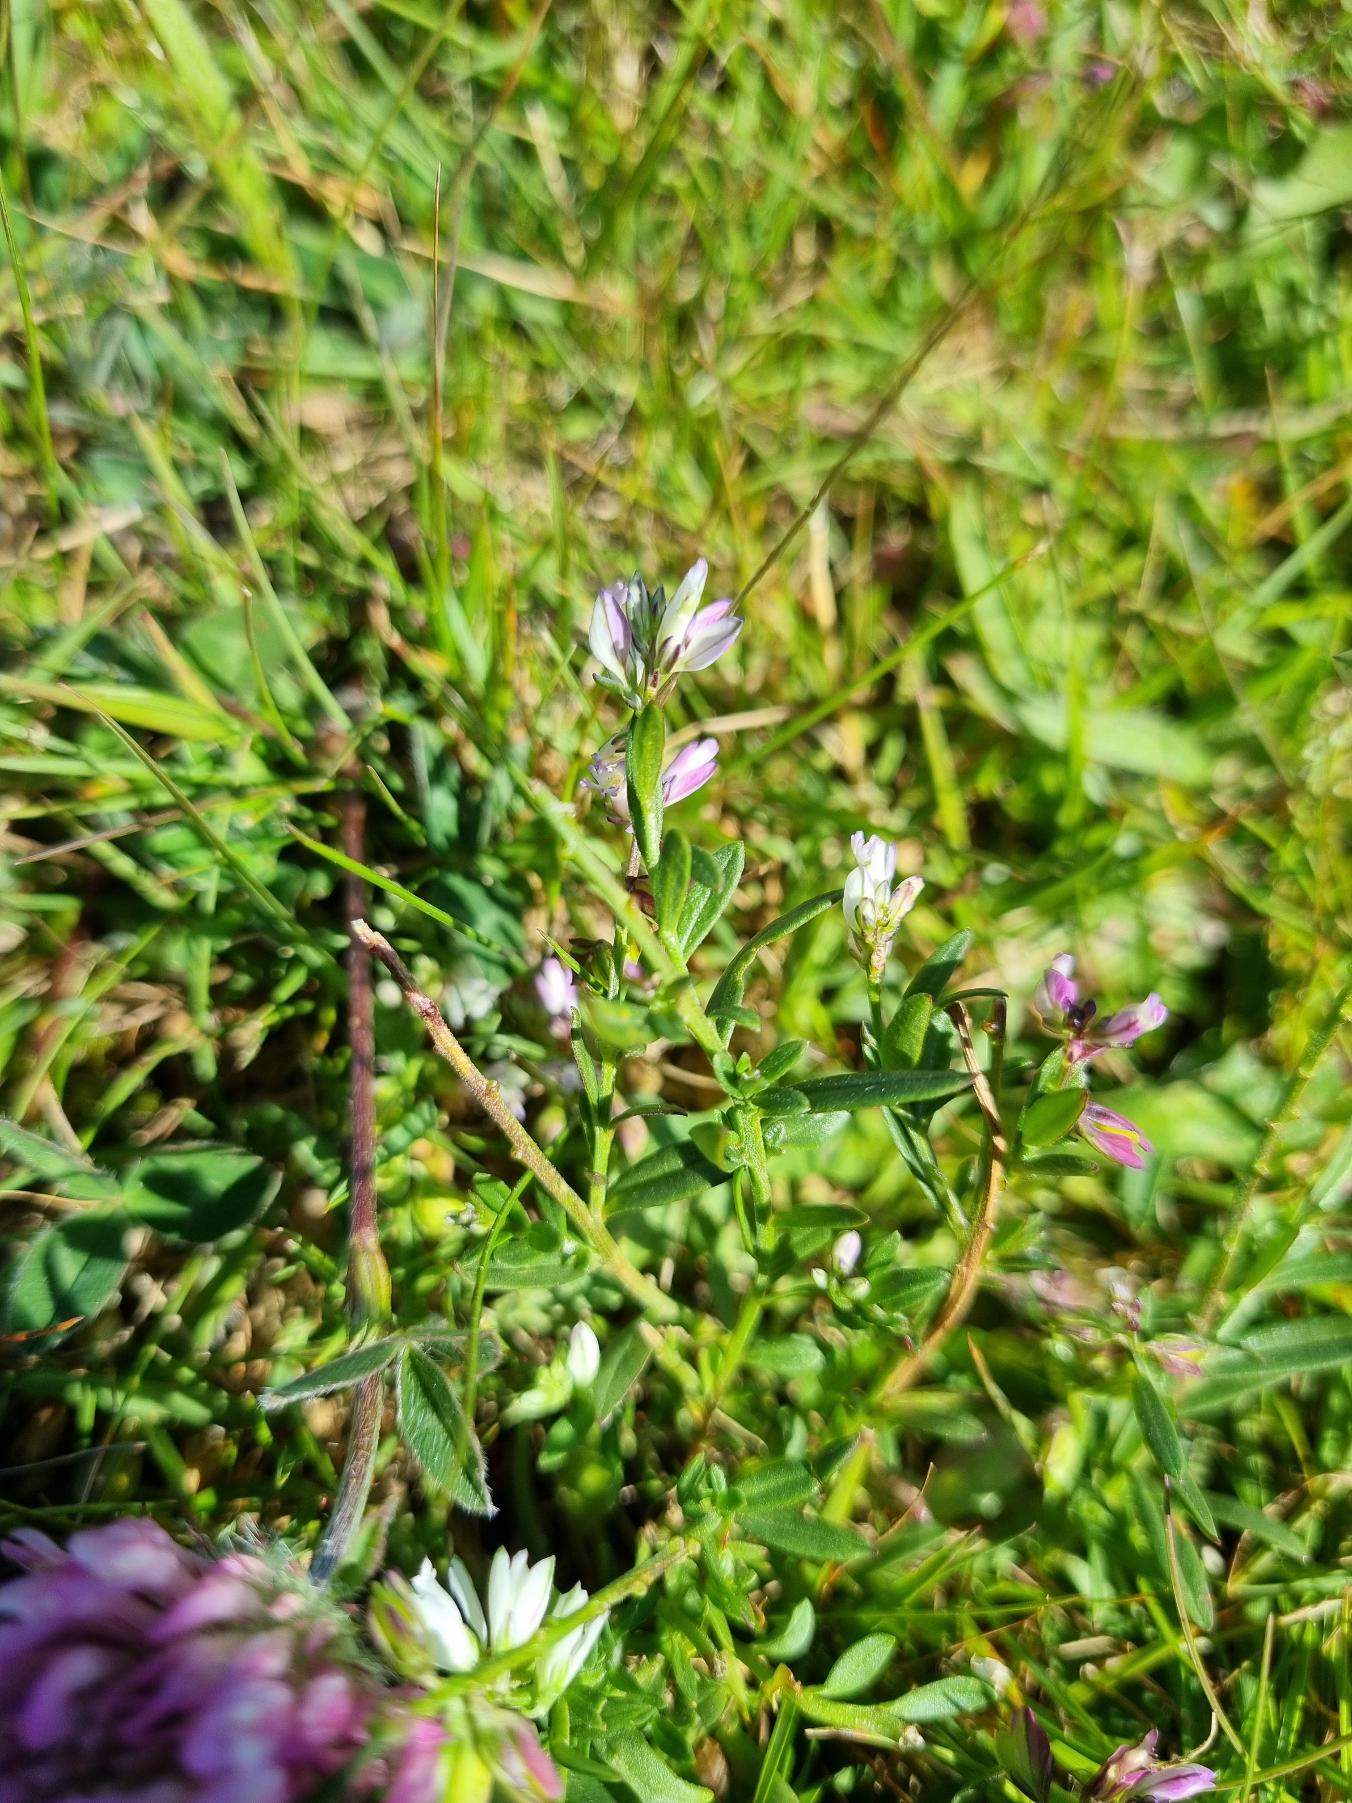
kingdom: Plantae
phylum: Tracheophyta
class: Magnoliopsida
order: Fabales
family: Polygalaceae
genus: Polygala
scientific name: Polygala vulgaris
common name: Almindelig mælkeurt
